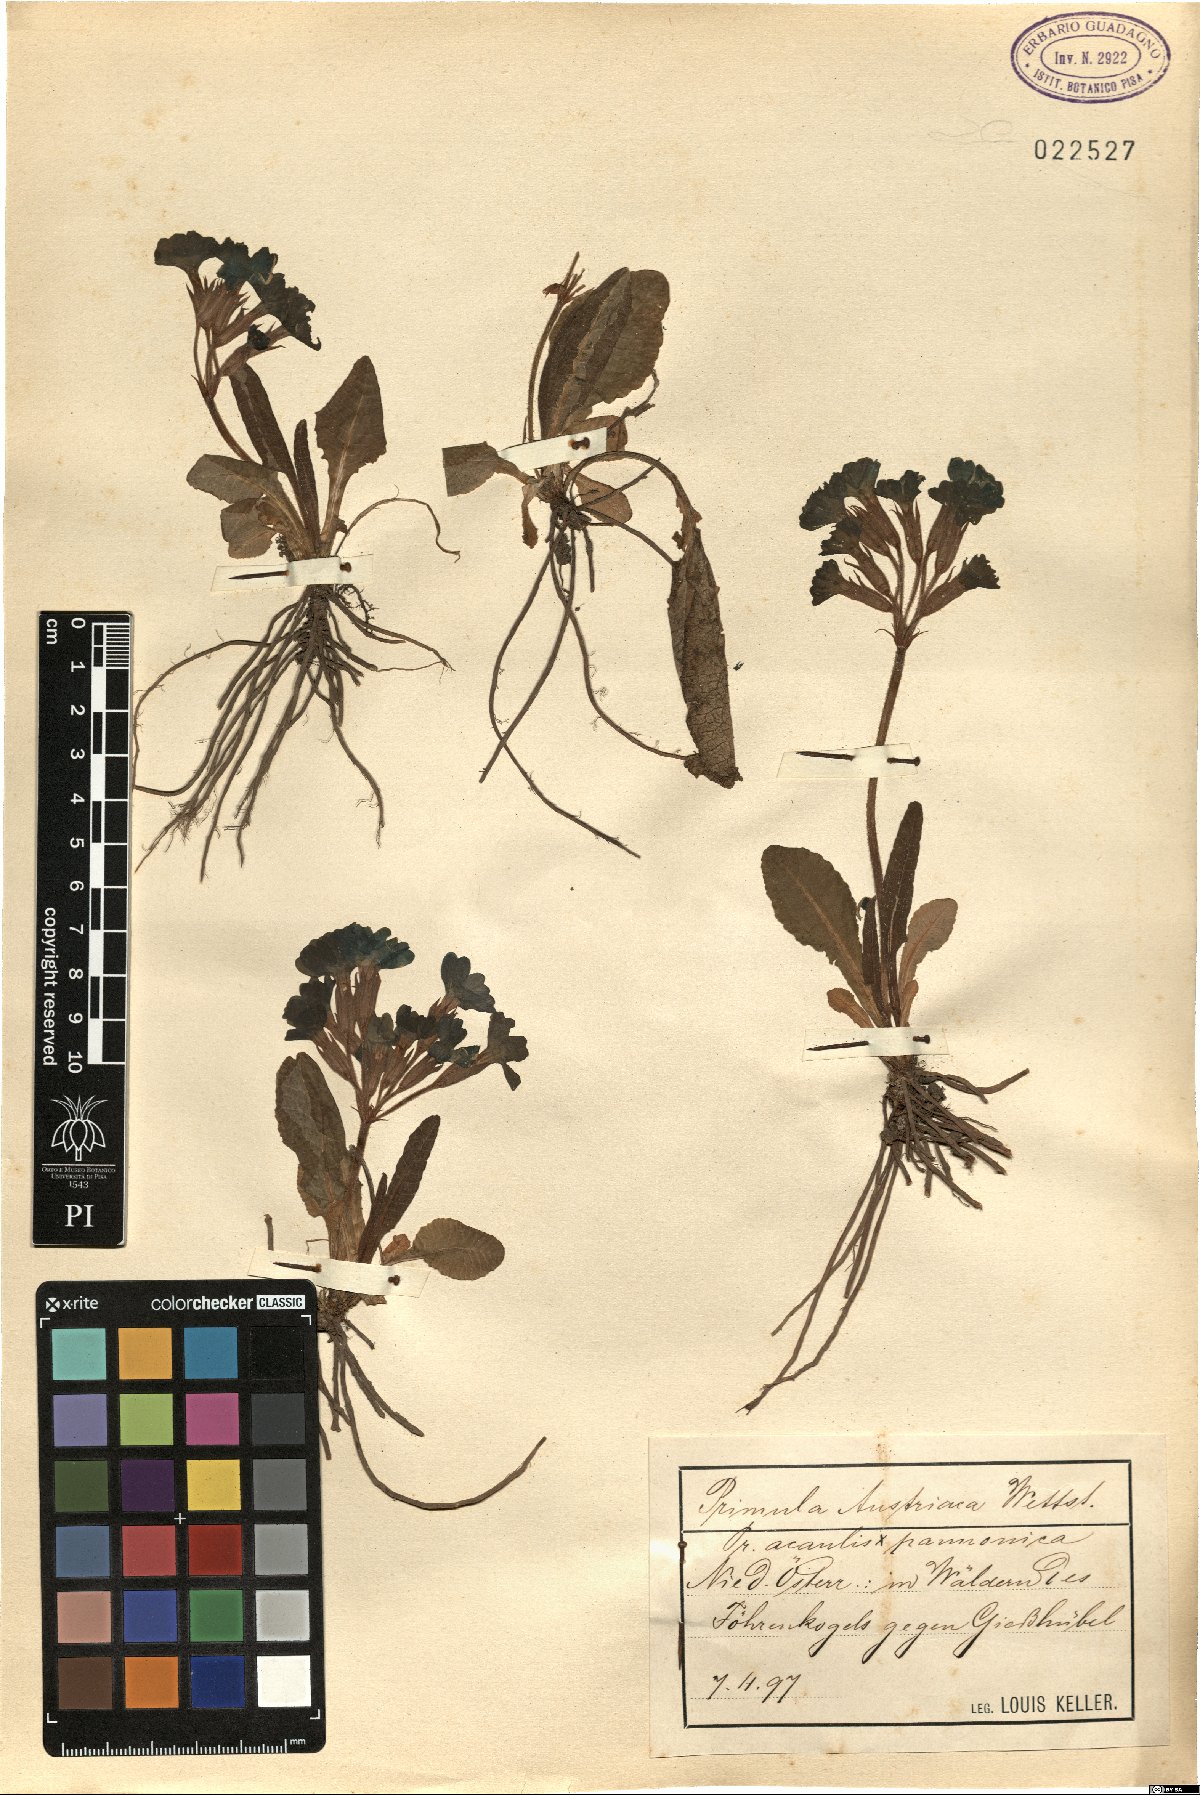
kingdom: Plantae
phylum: Tracheophyta
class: Magnoliopsida
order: Ericales
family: Primulaceae
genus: Primula
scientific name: Primula austriaca
